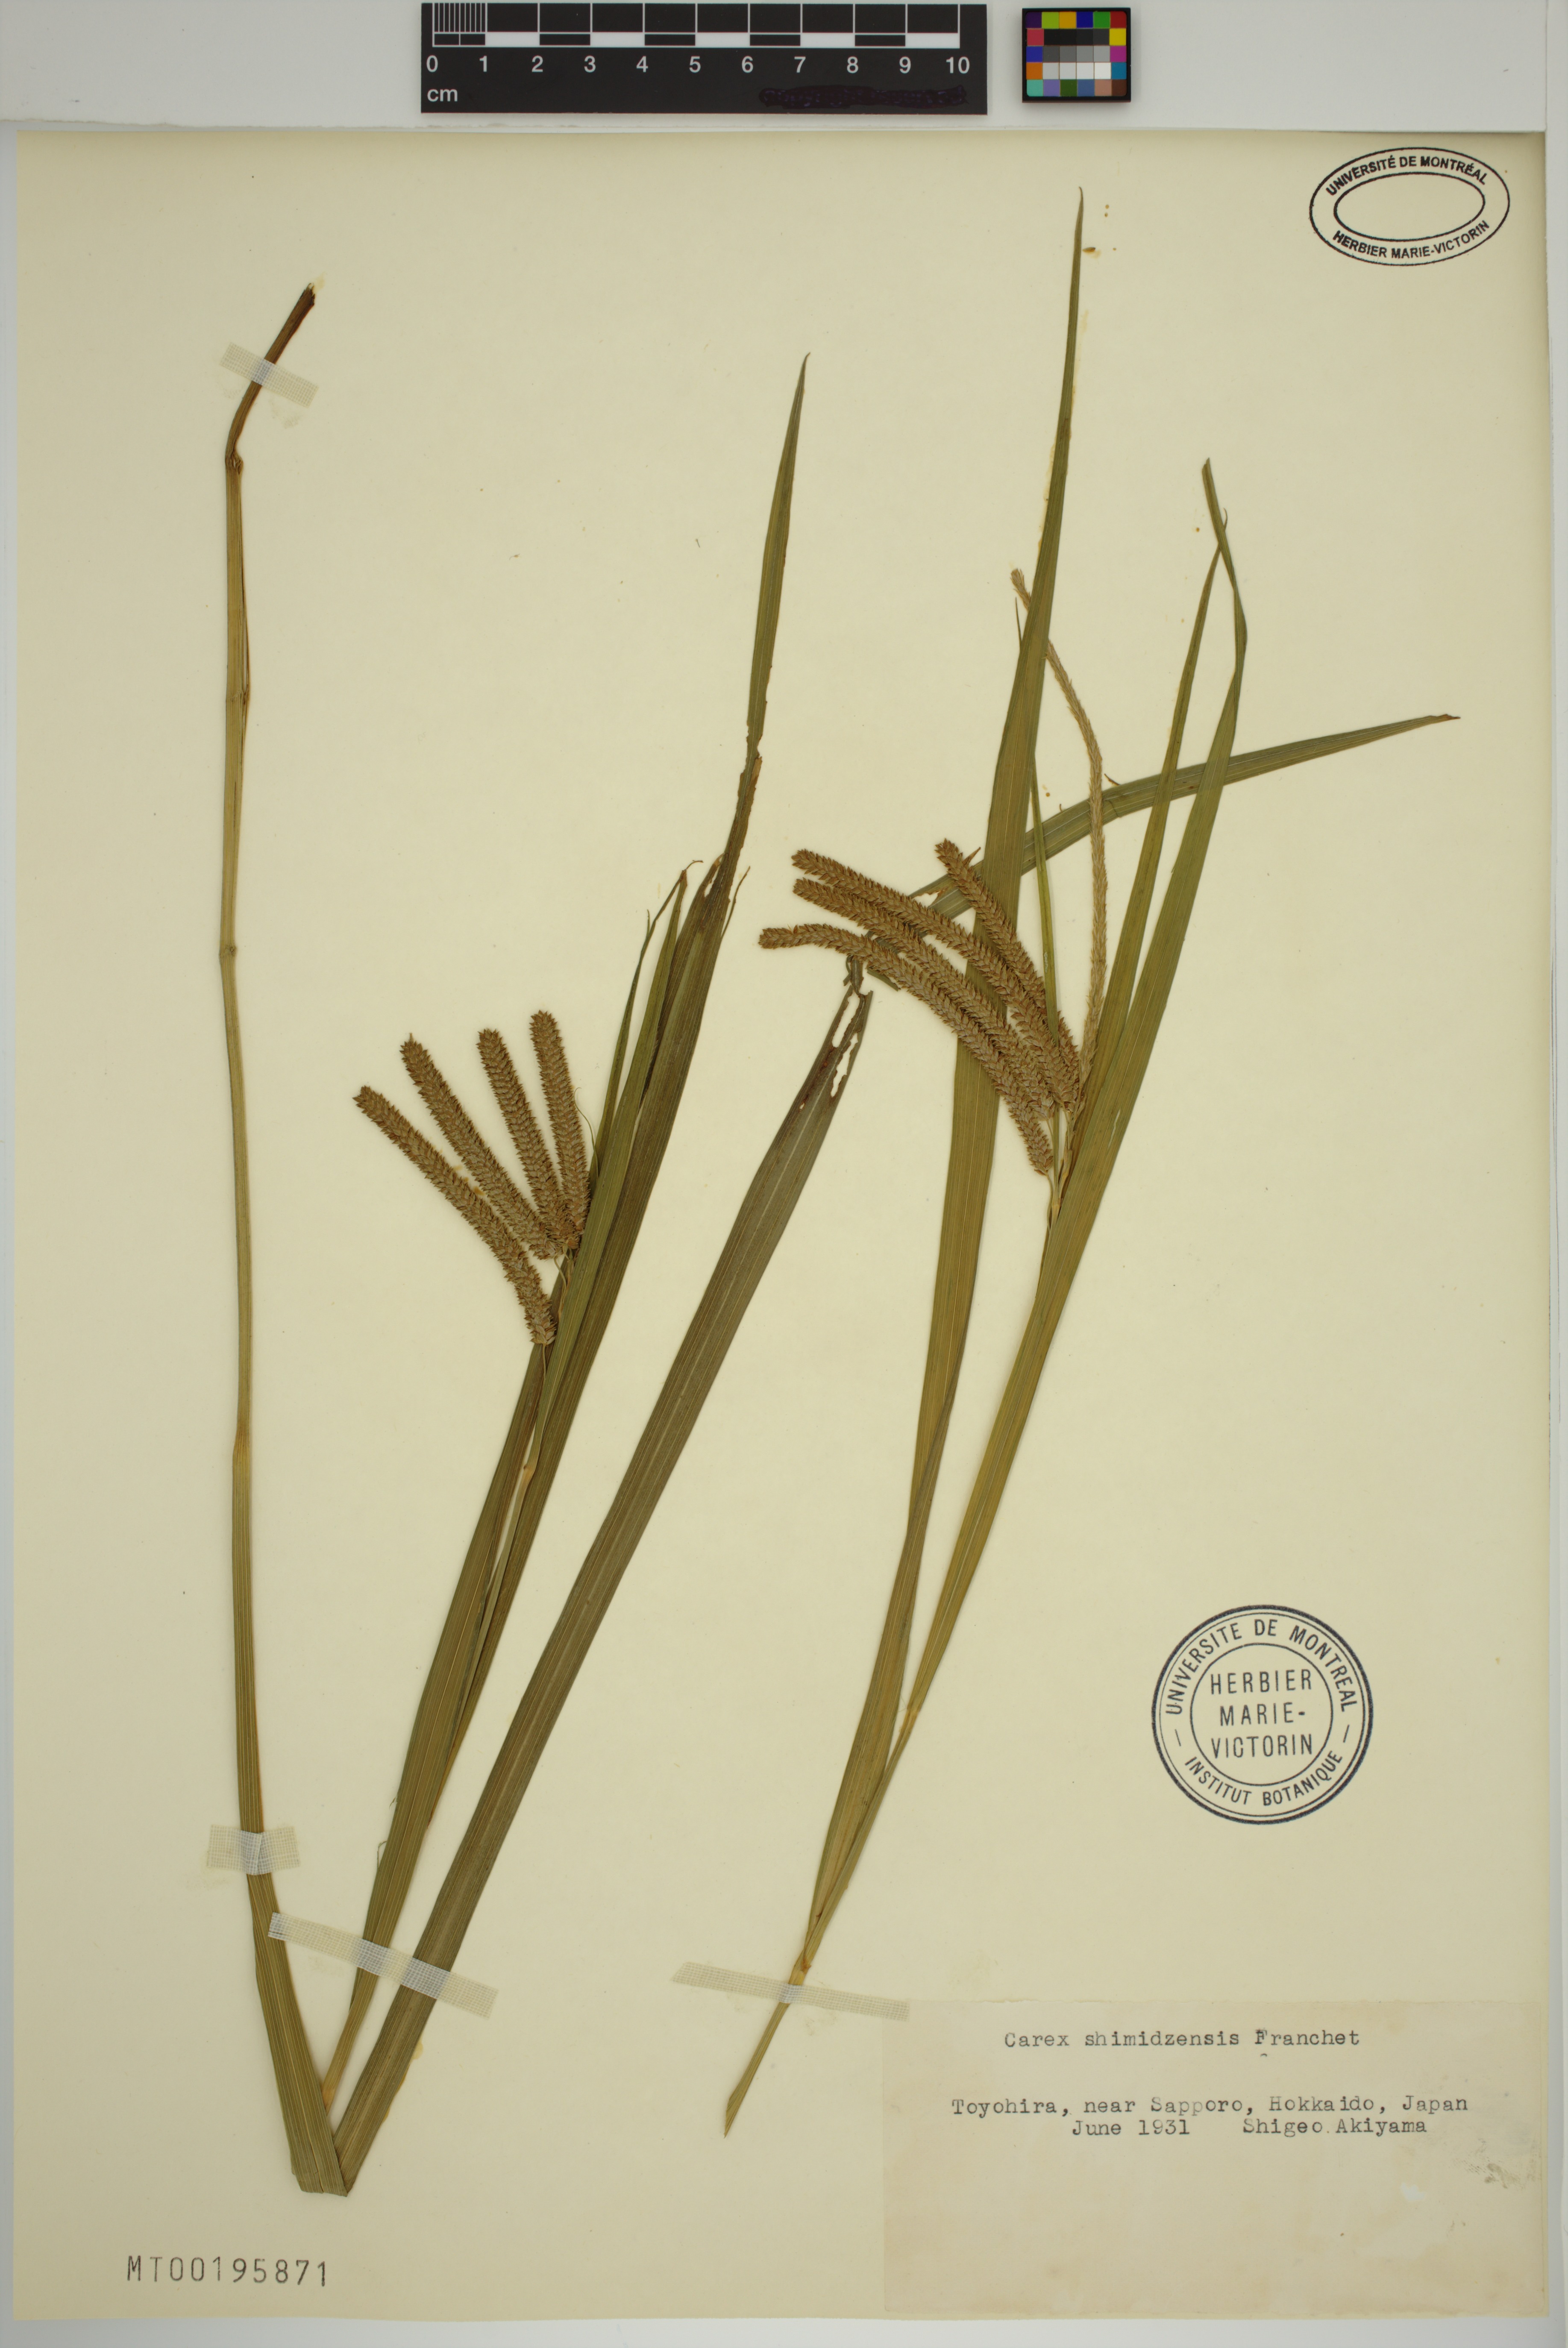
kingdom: Plantae
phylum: Tracheophyta
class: Liliopsida
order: Poales
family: Cyperaceae
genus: Carex
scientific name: Carex shimidzensis
